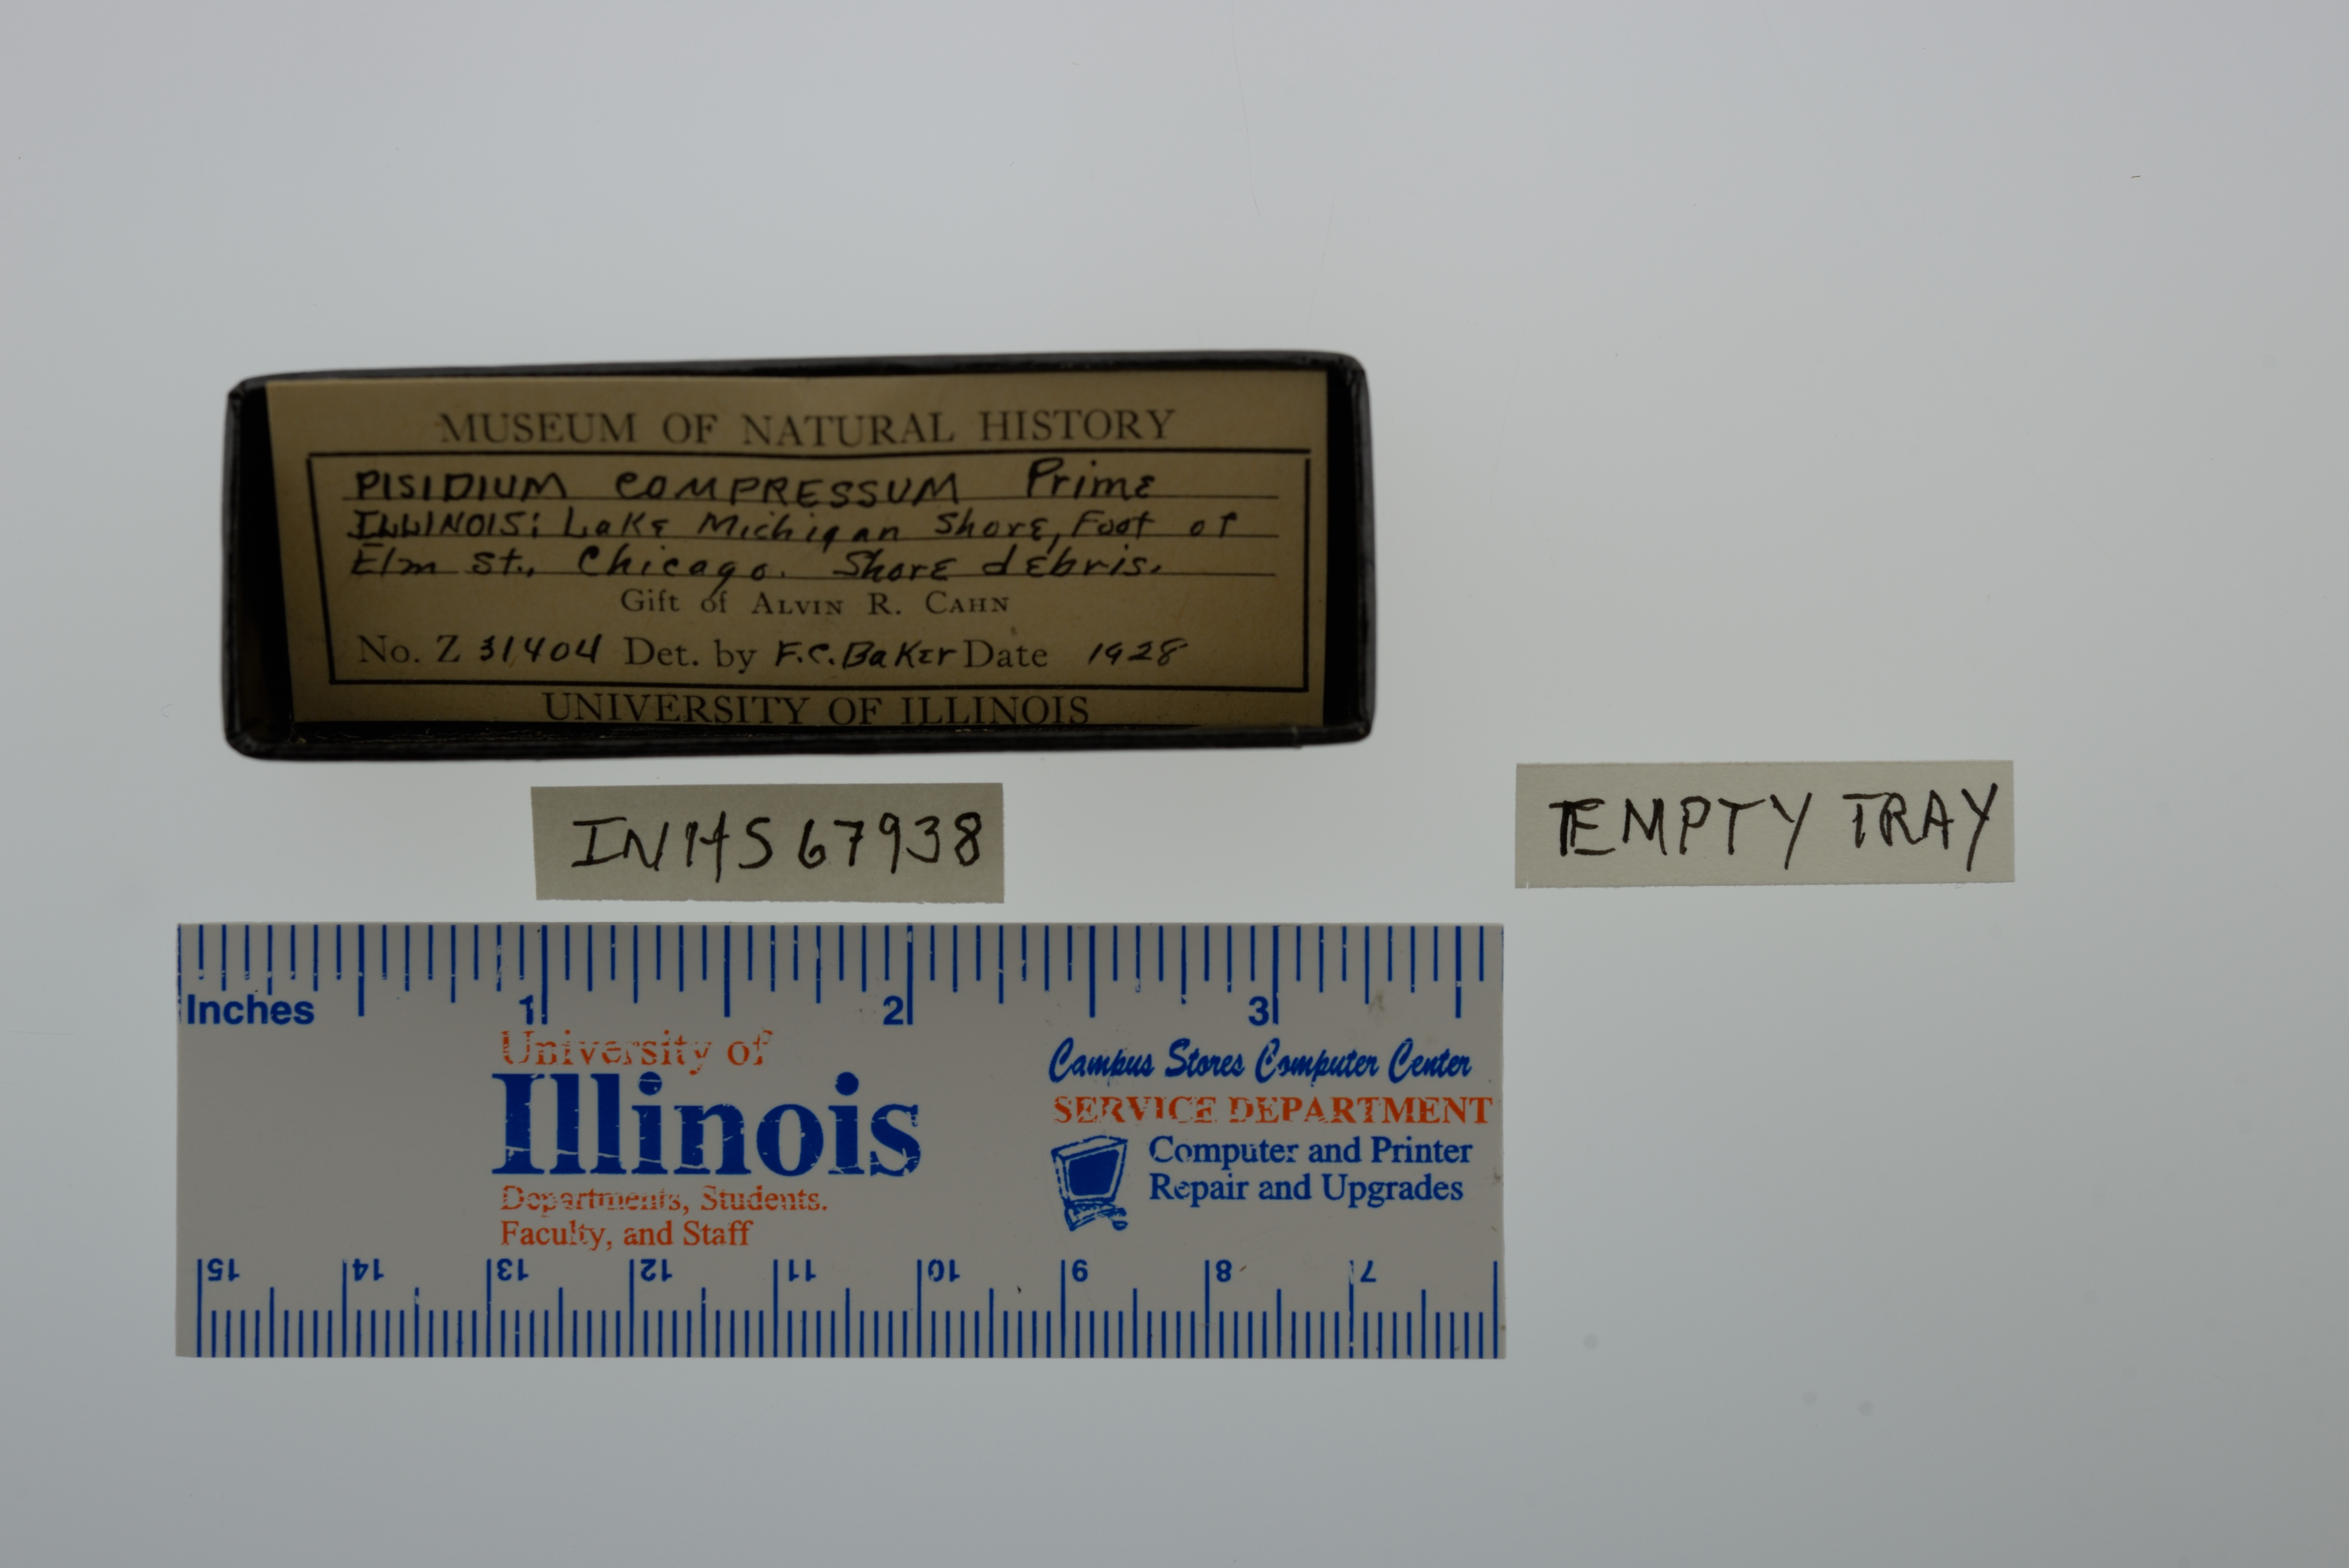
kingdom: Animalia
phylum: Mollusca
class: Bivalvia
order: Sphaeriida
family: Sphaeriidae
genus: Euglesa
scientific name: Euglesa compressa
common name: Ridgedbeak peaclam
